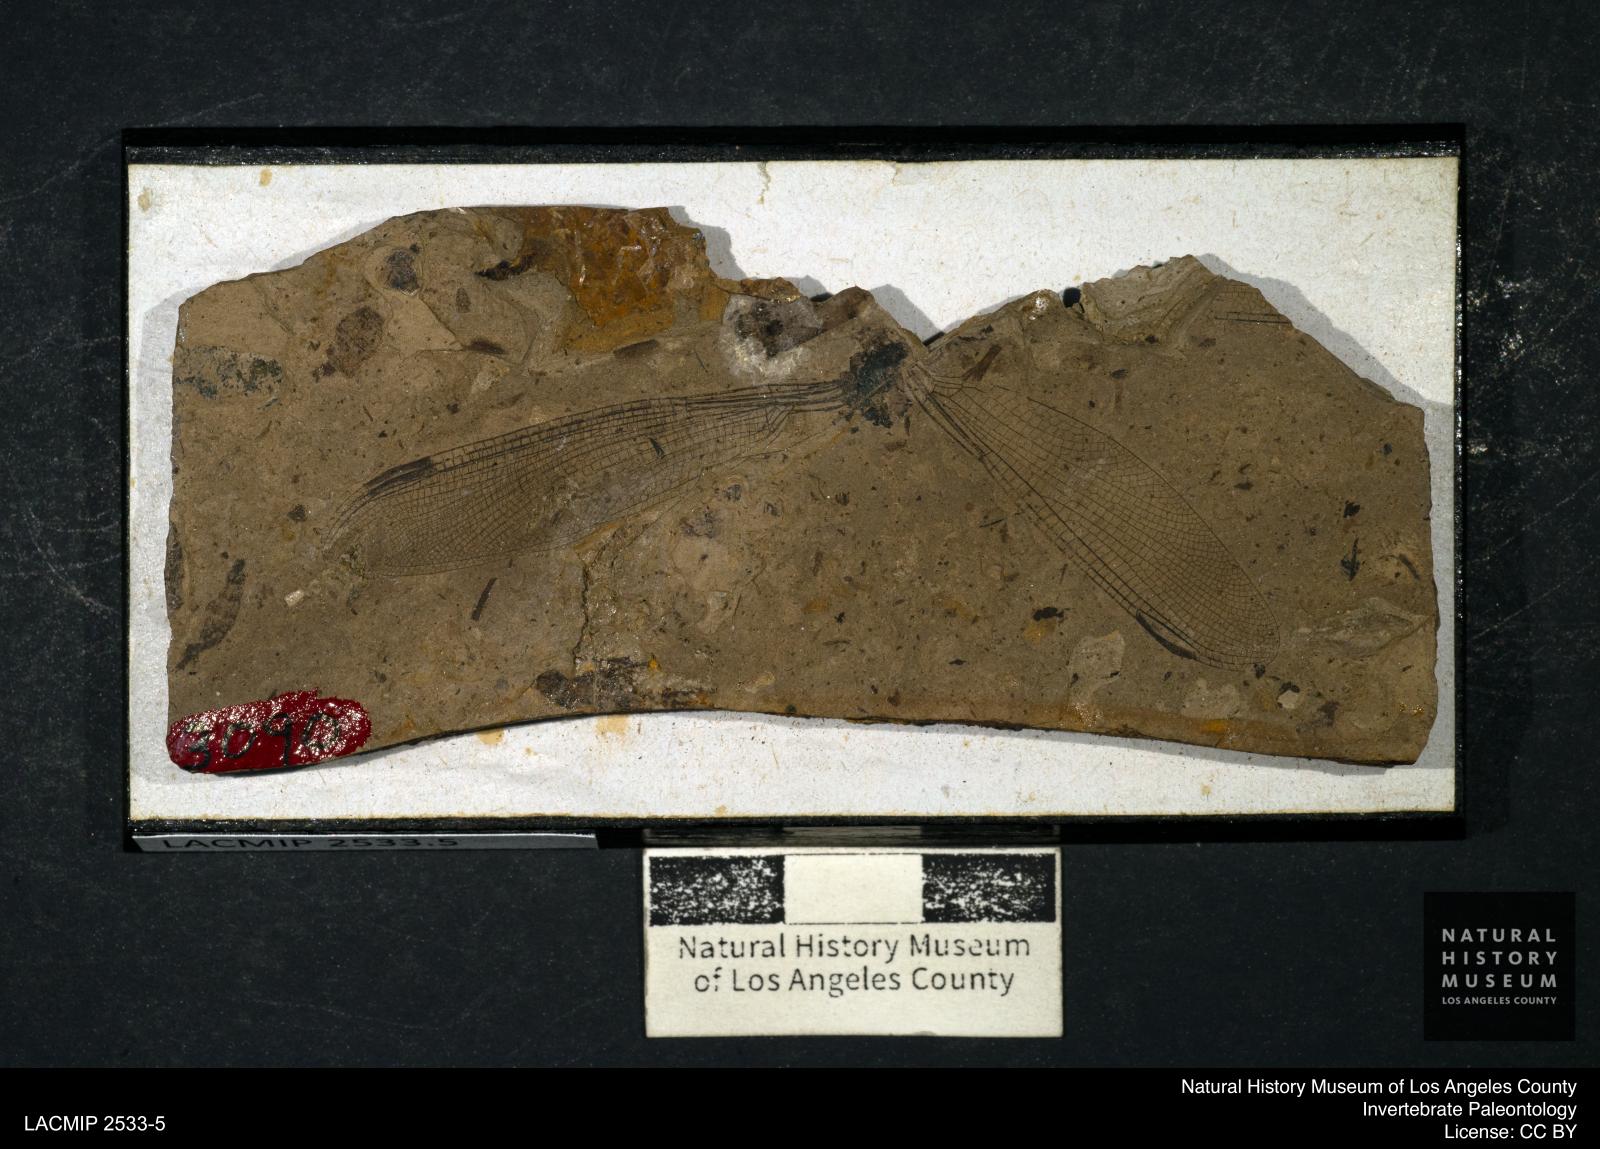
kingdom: Animalia
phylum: Arthropoda
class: Insecta
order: Odonata
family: Lestidae
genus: Archilestes
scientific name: Archilestes grandis
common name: Great spreadwing
